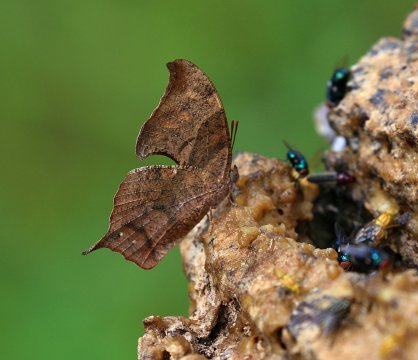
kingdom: Animalia
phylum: Arthropoda
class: Insecta
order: Lepidoptera
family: Nymphalidae
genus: Anaea
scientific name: Anaea pithyusa
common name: Pale-spotted Leafwing
